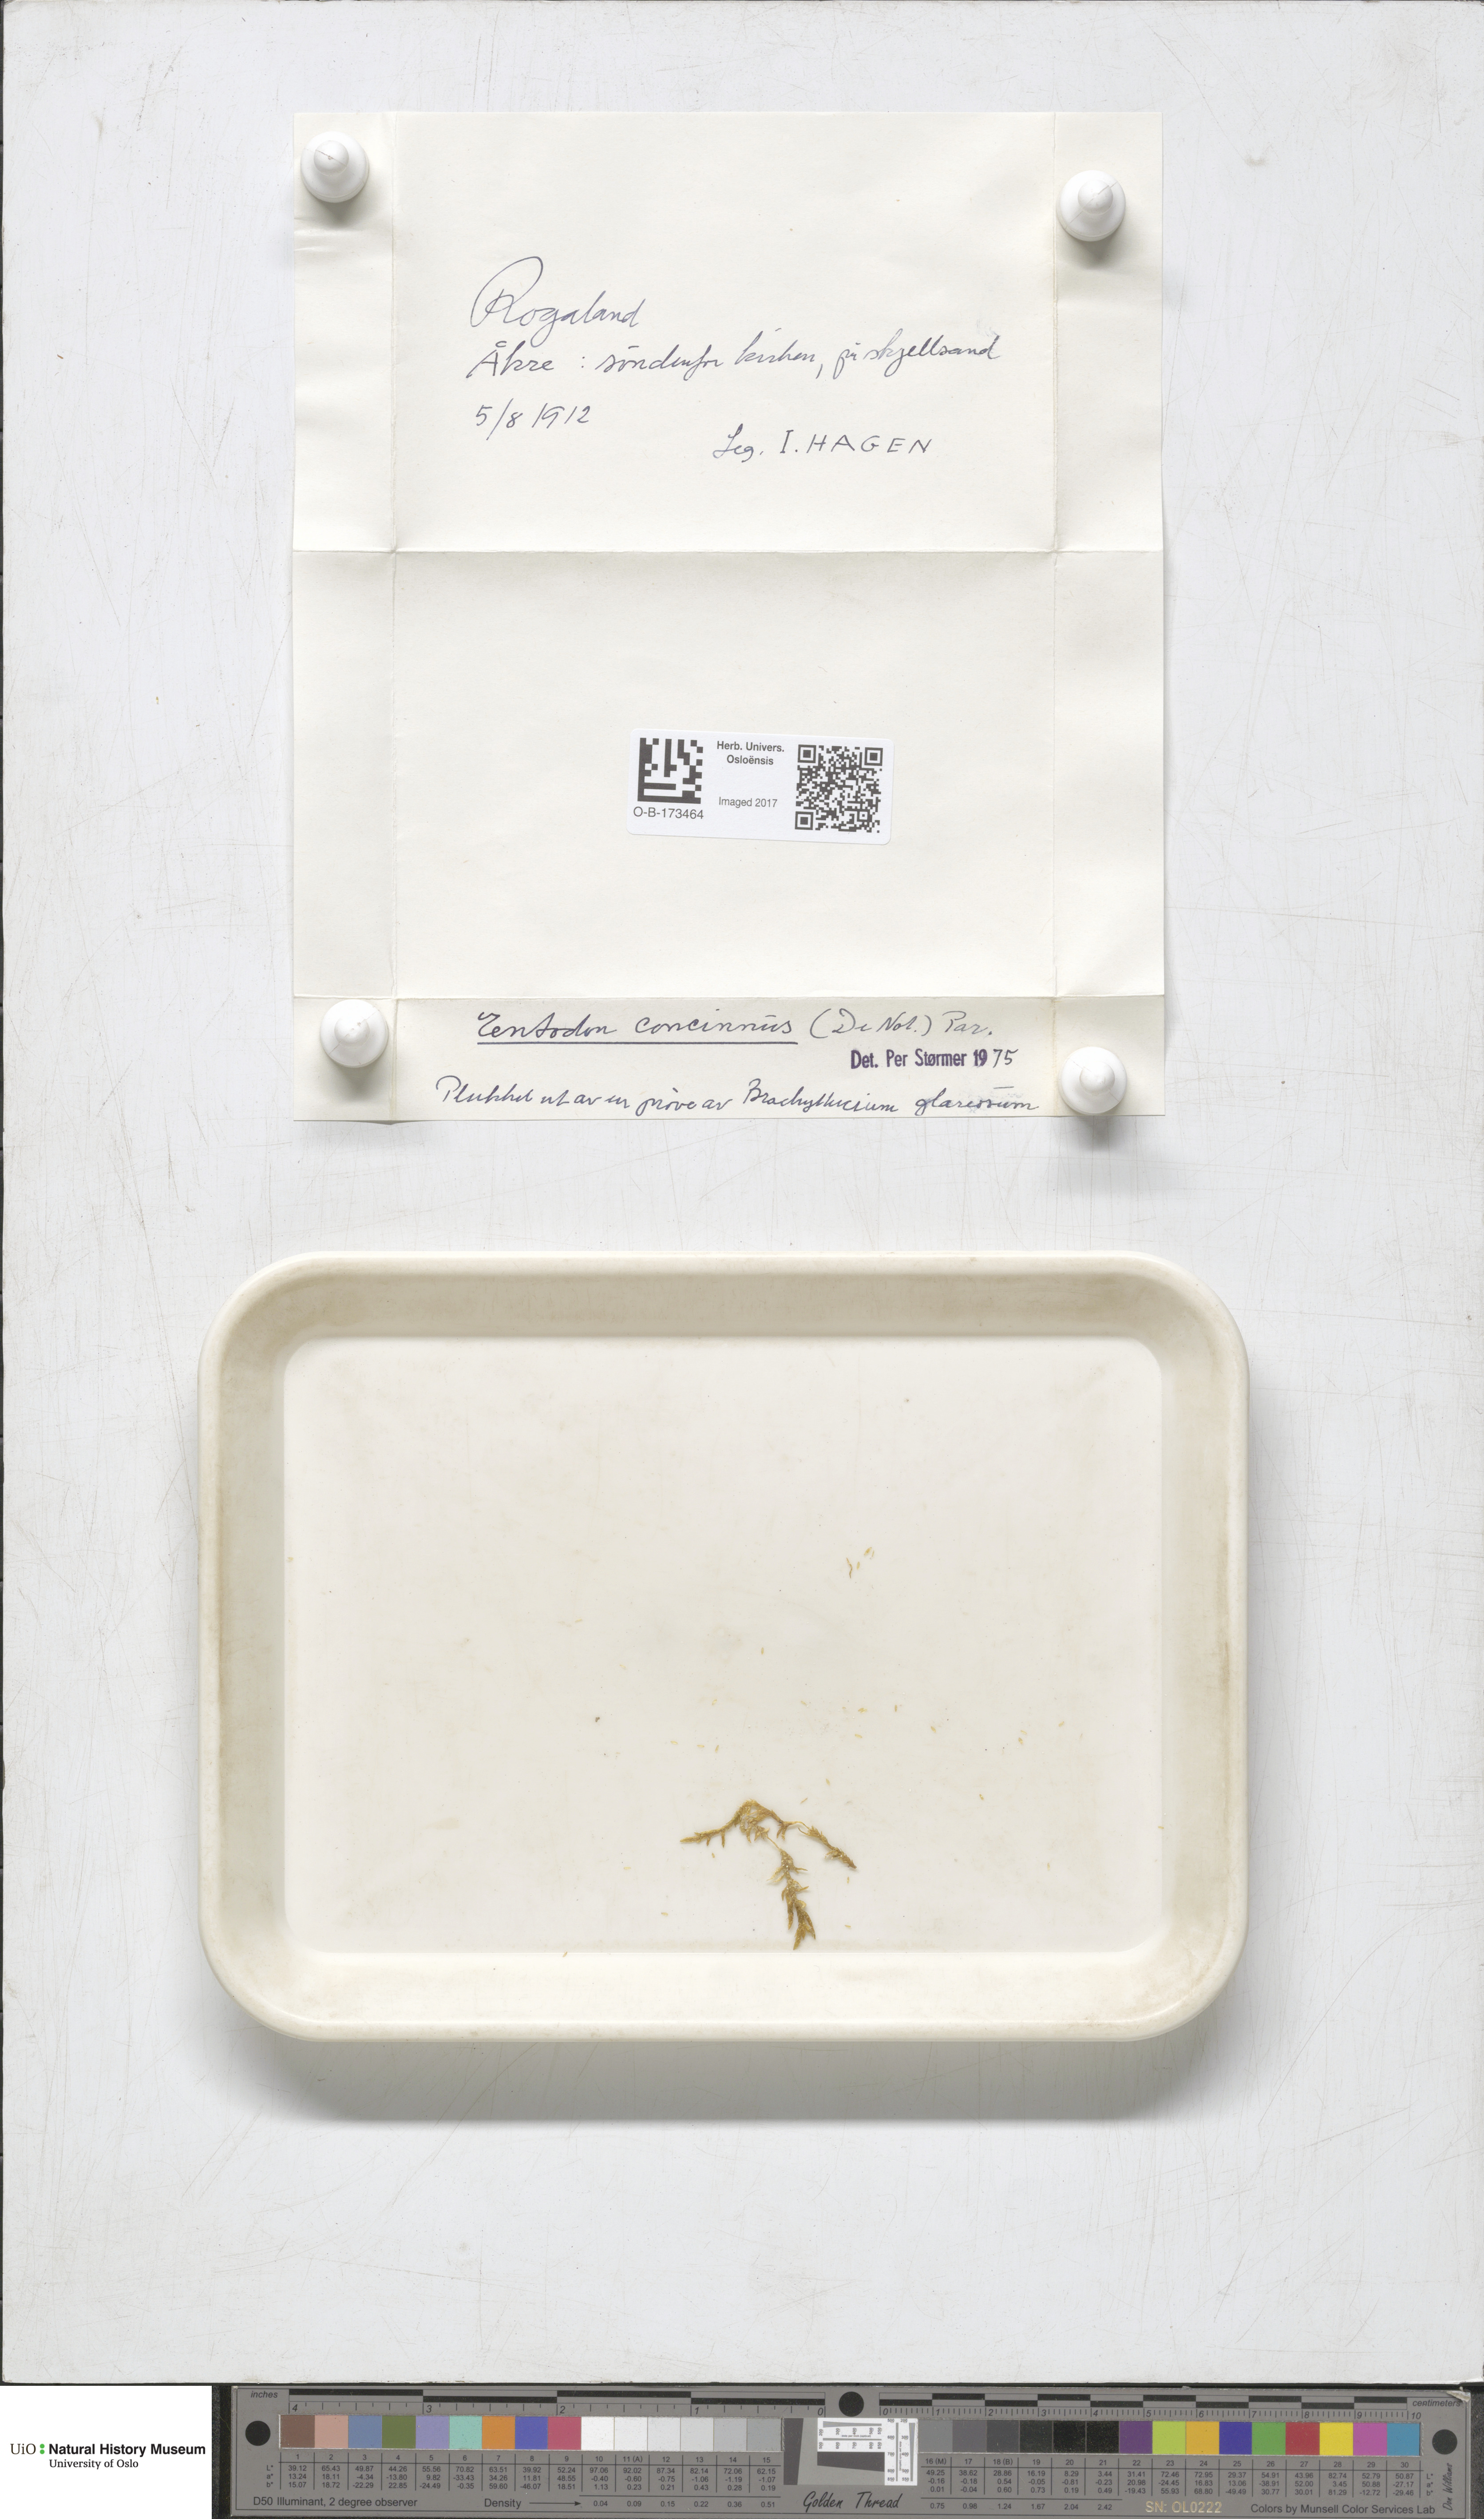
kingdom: Plantae
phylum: Bryophyta
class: Bryopsida
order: Hypnales
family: Entodontaceae
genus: Entodon
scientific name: Entodon concinnus
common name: Montagne's cylinder-moss
